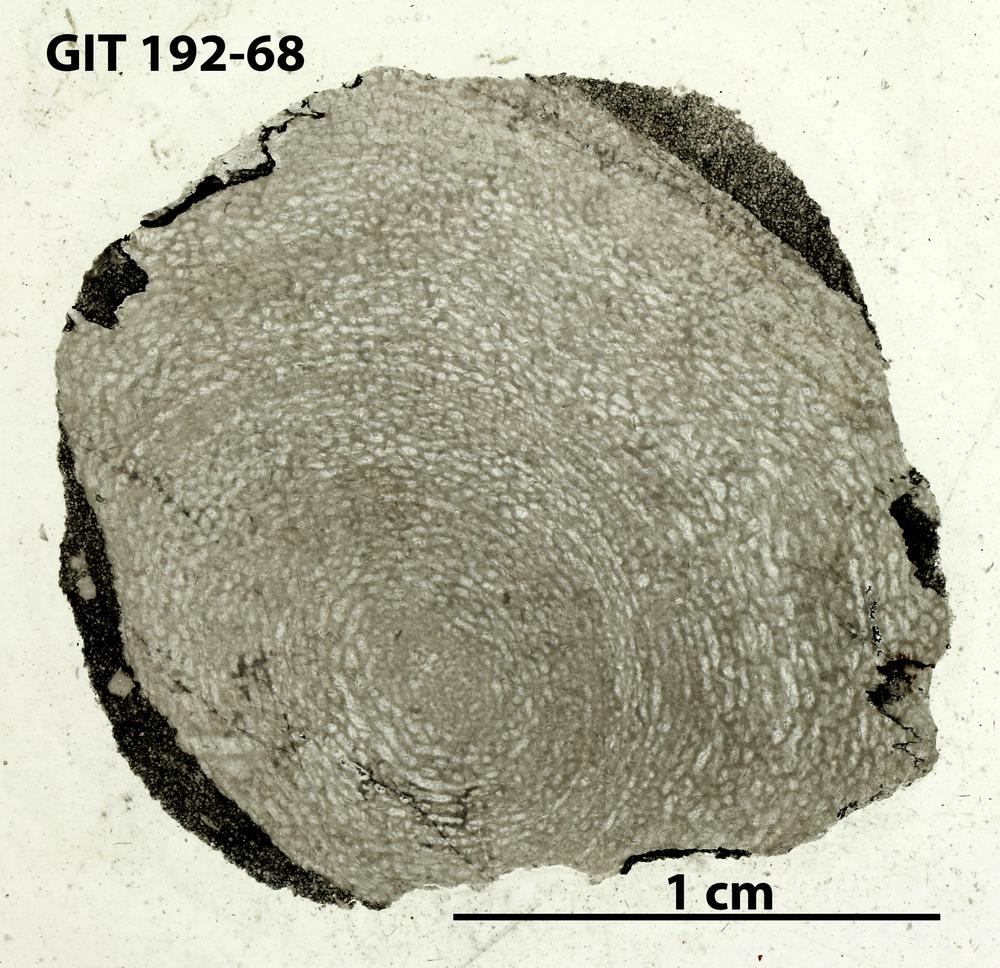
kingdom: Animalia
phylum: Porifera
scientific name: Porifera
